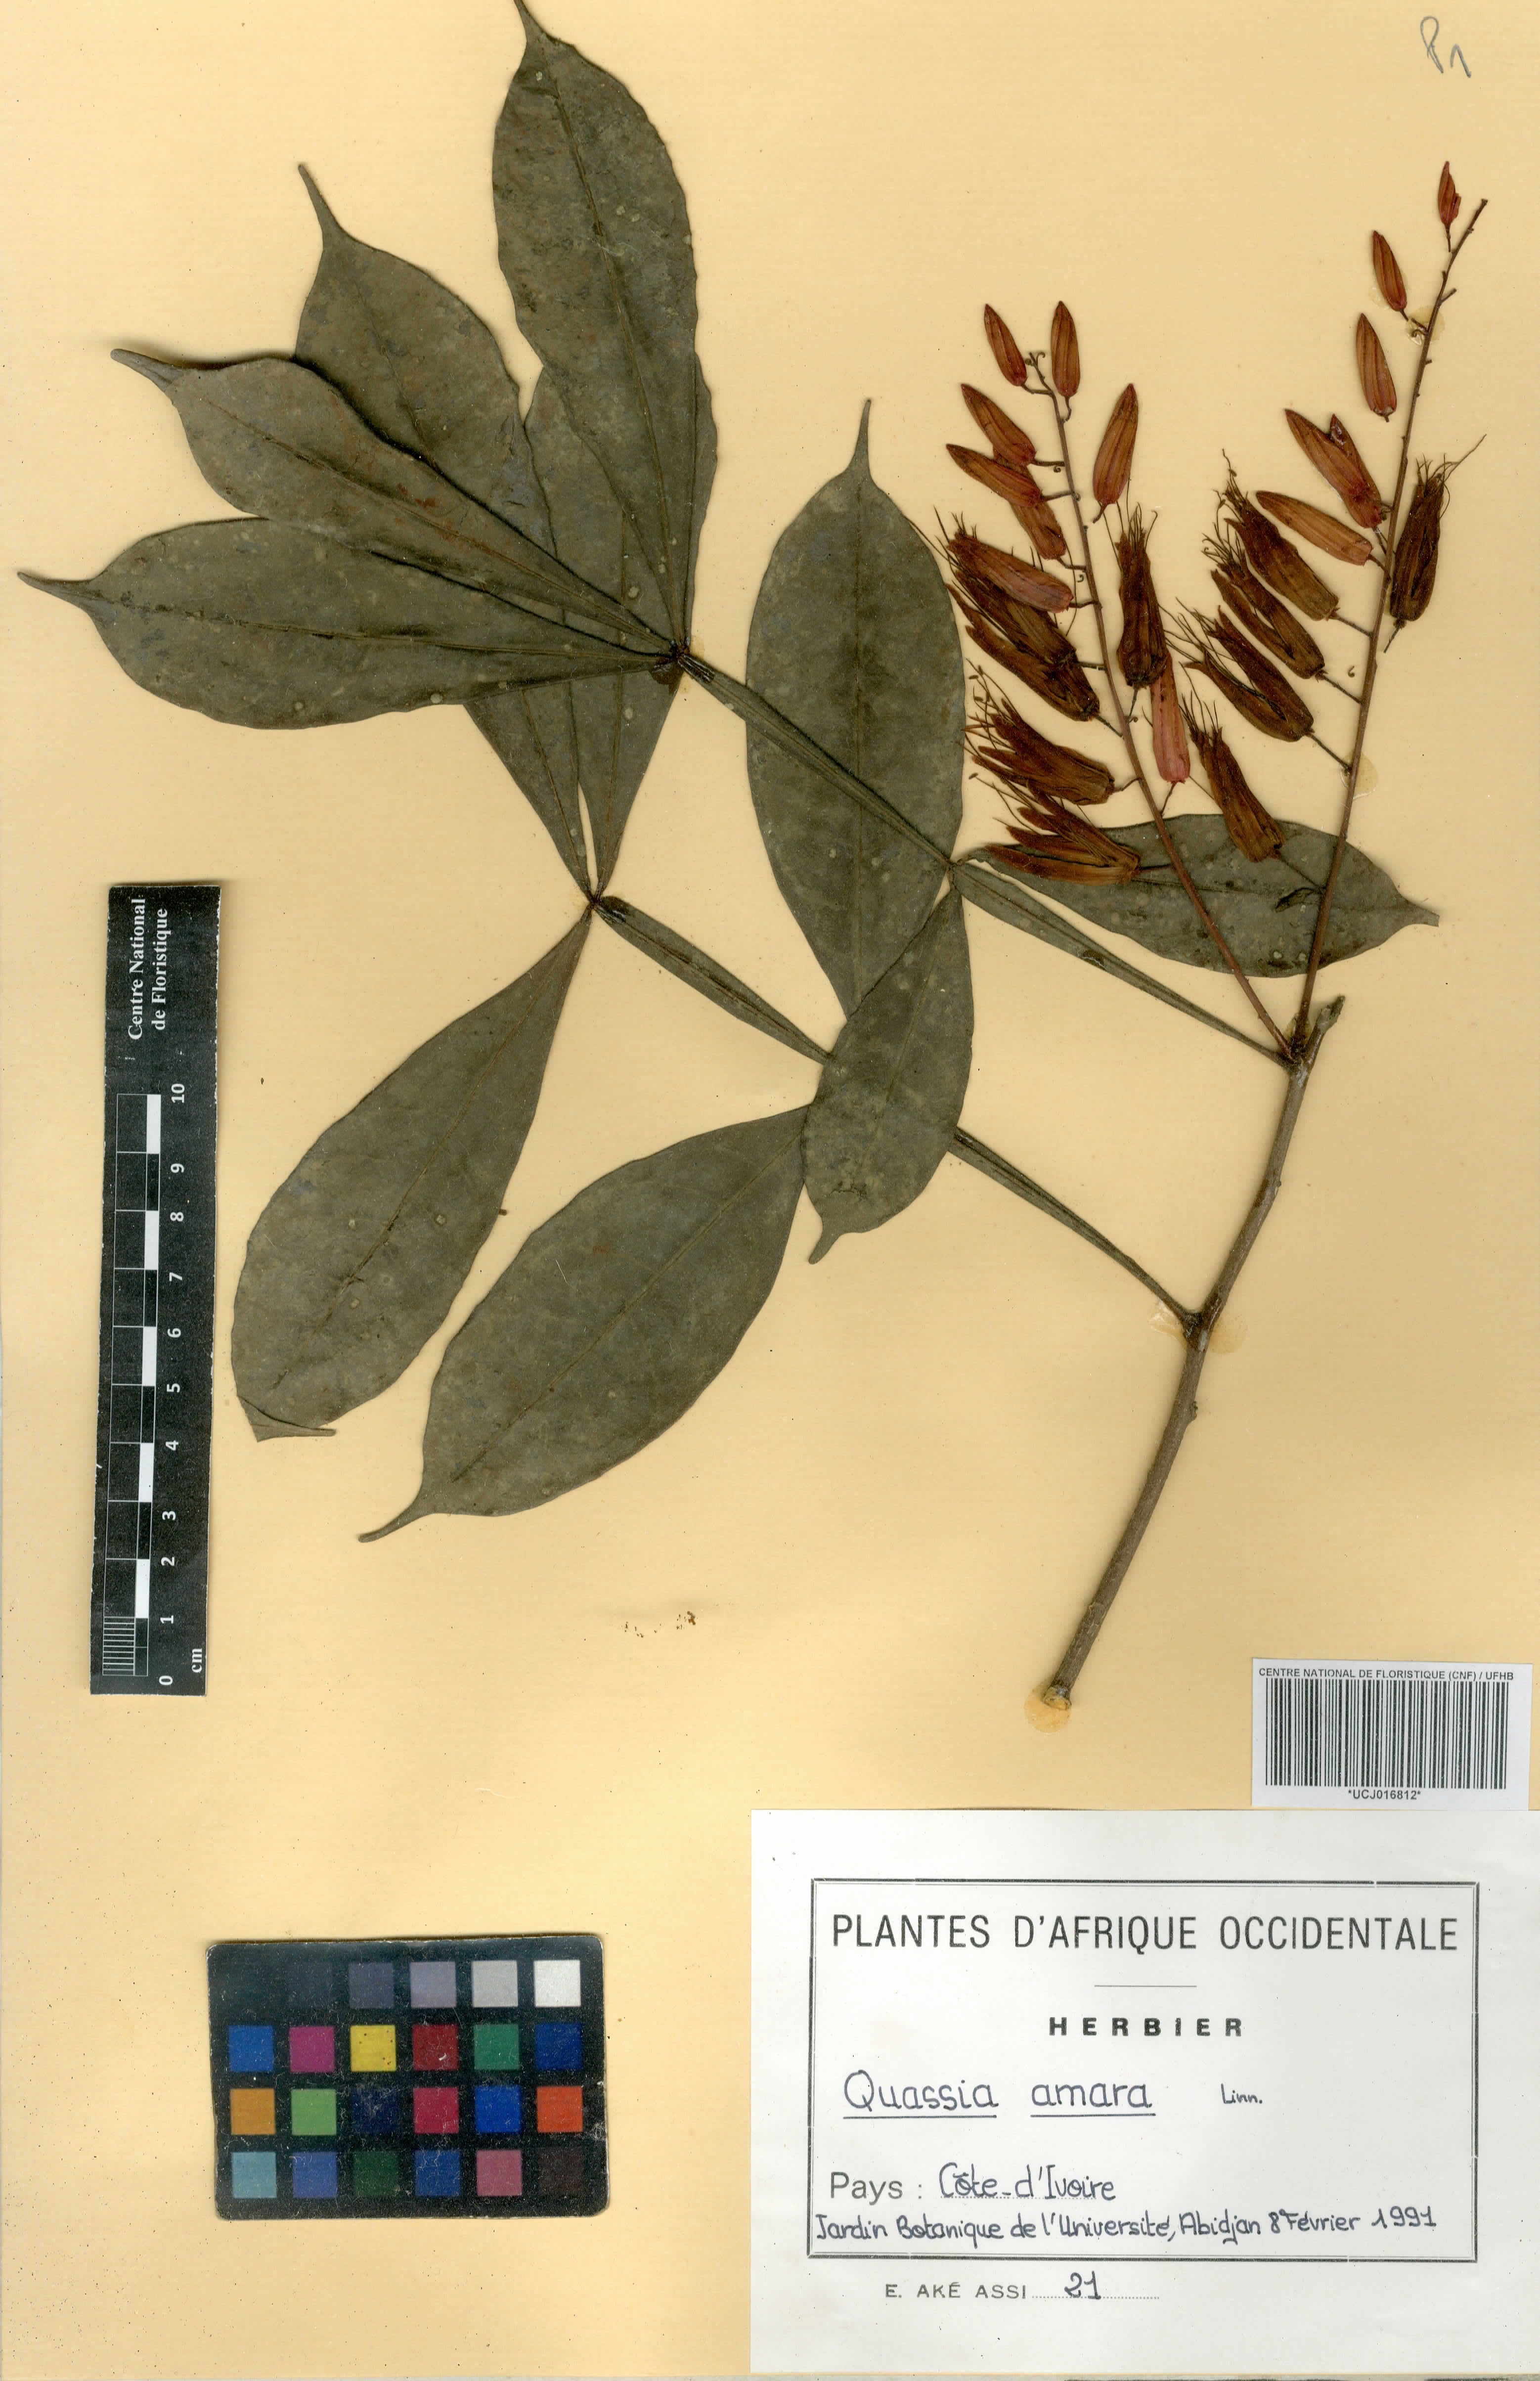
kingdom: Plantae
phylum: Tracheophyta
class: Magnoliopsida
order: Sapindales
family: Simaroubaceae
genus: Quassia
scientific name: Quassia amara
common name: Quassia
